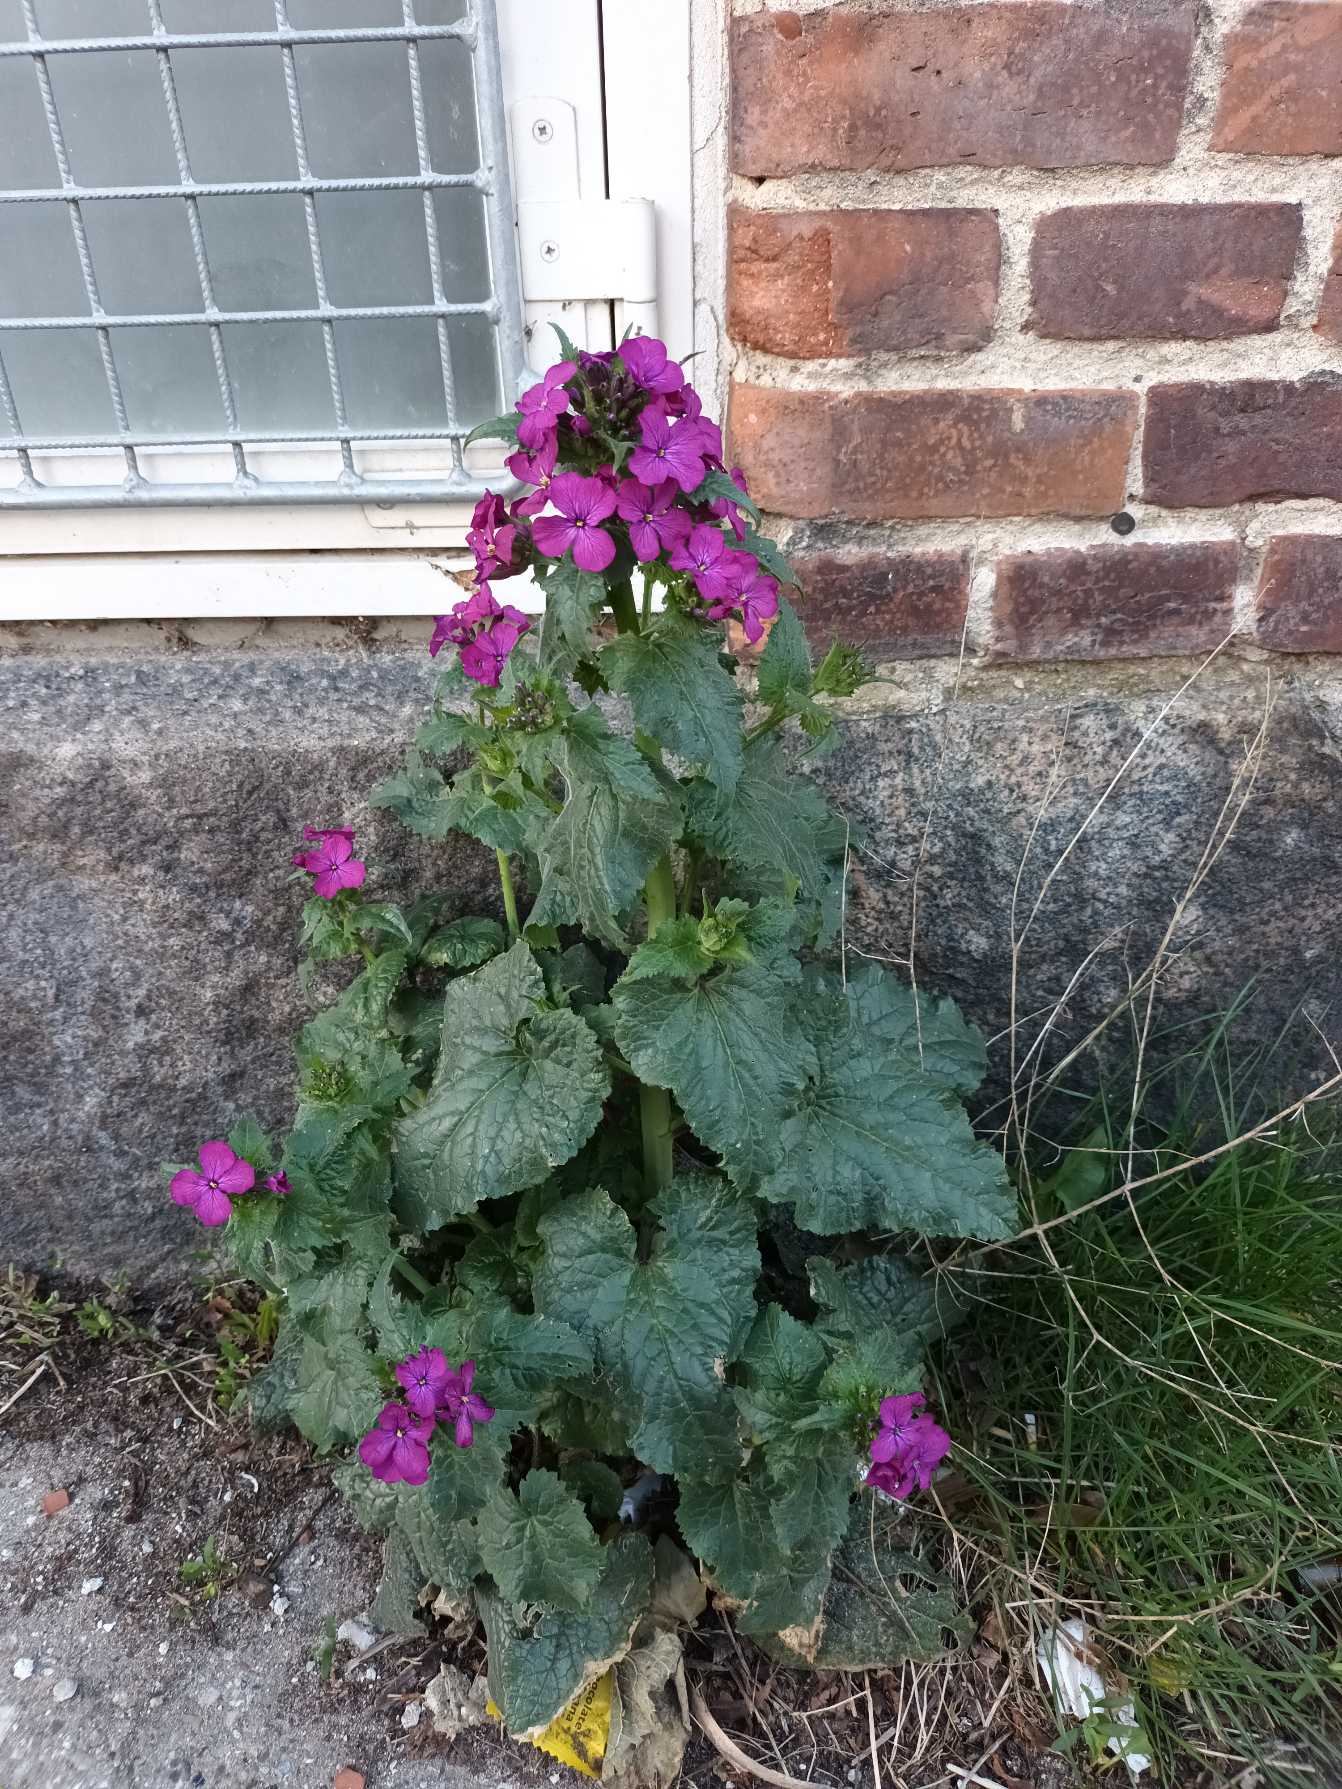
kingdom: Plantae
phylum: Tracheophyta
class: Magnoliopsida
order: Brassicales
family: Brassicaceae
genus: Lunaria
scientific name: Lunaria annua
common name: Judaspenge
